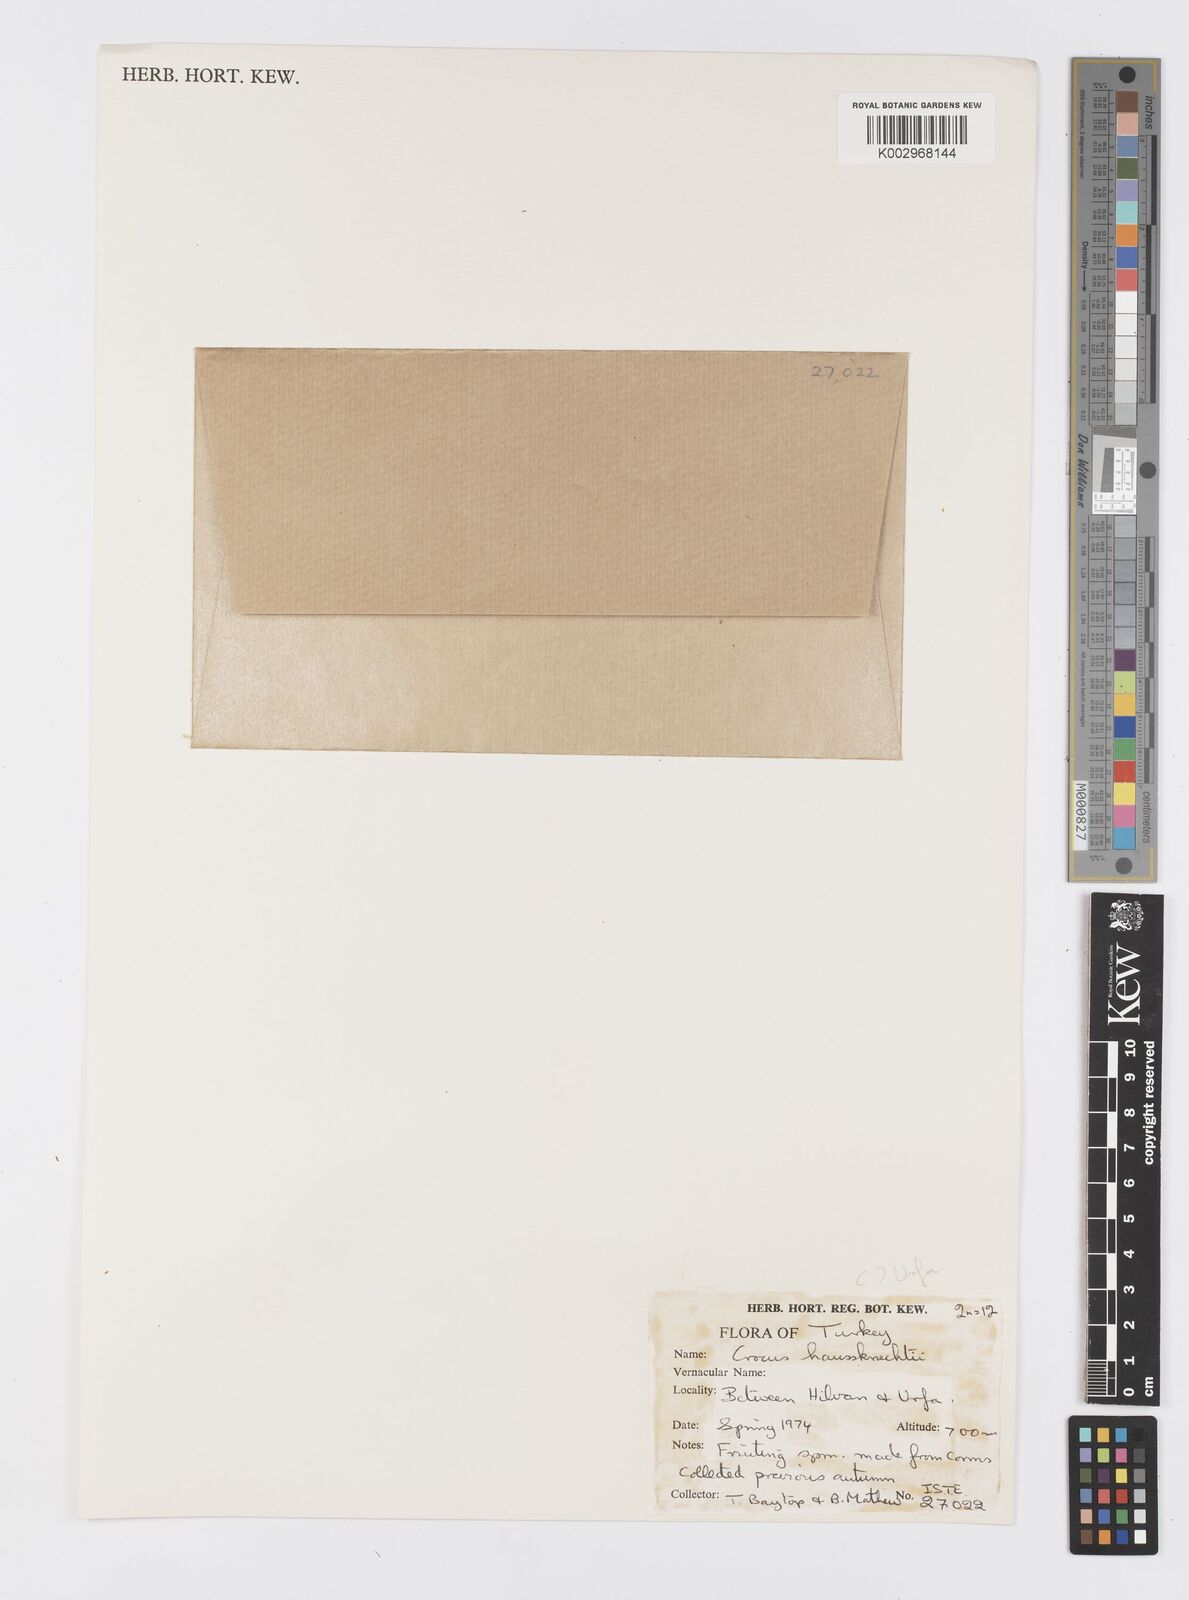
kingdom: Plantae
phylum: Tracheophyta
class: Liliopsida
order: Asparagales
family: Iridaceae
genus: Crocus
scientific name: Crocus turcicus
